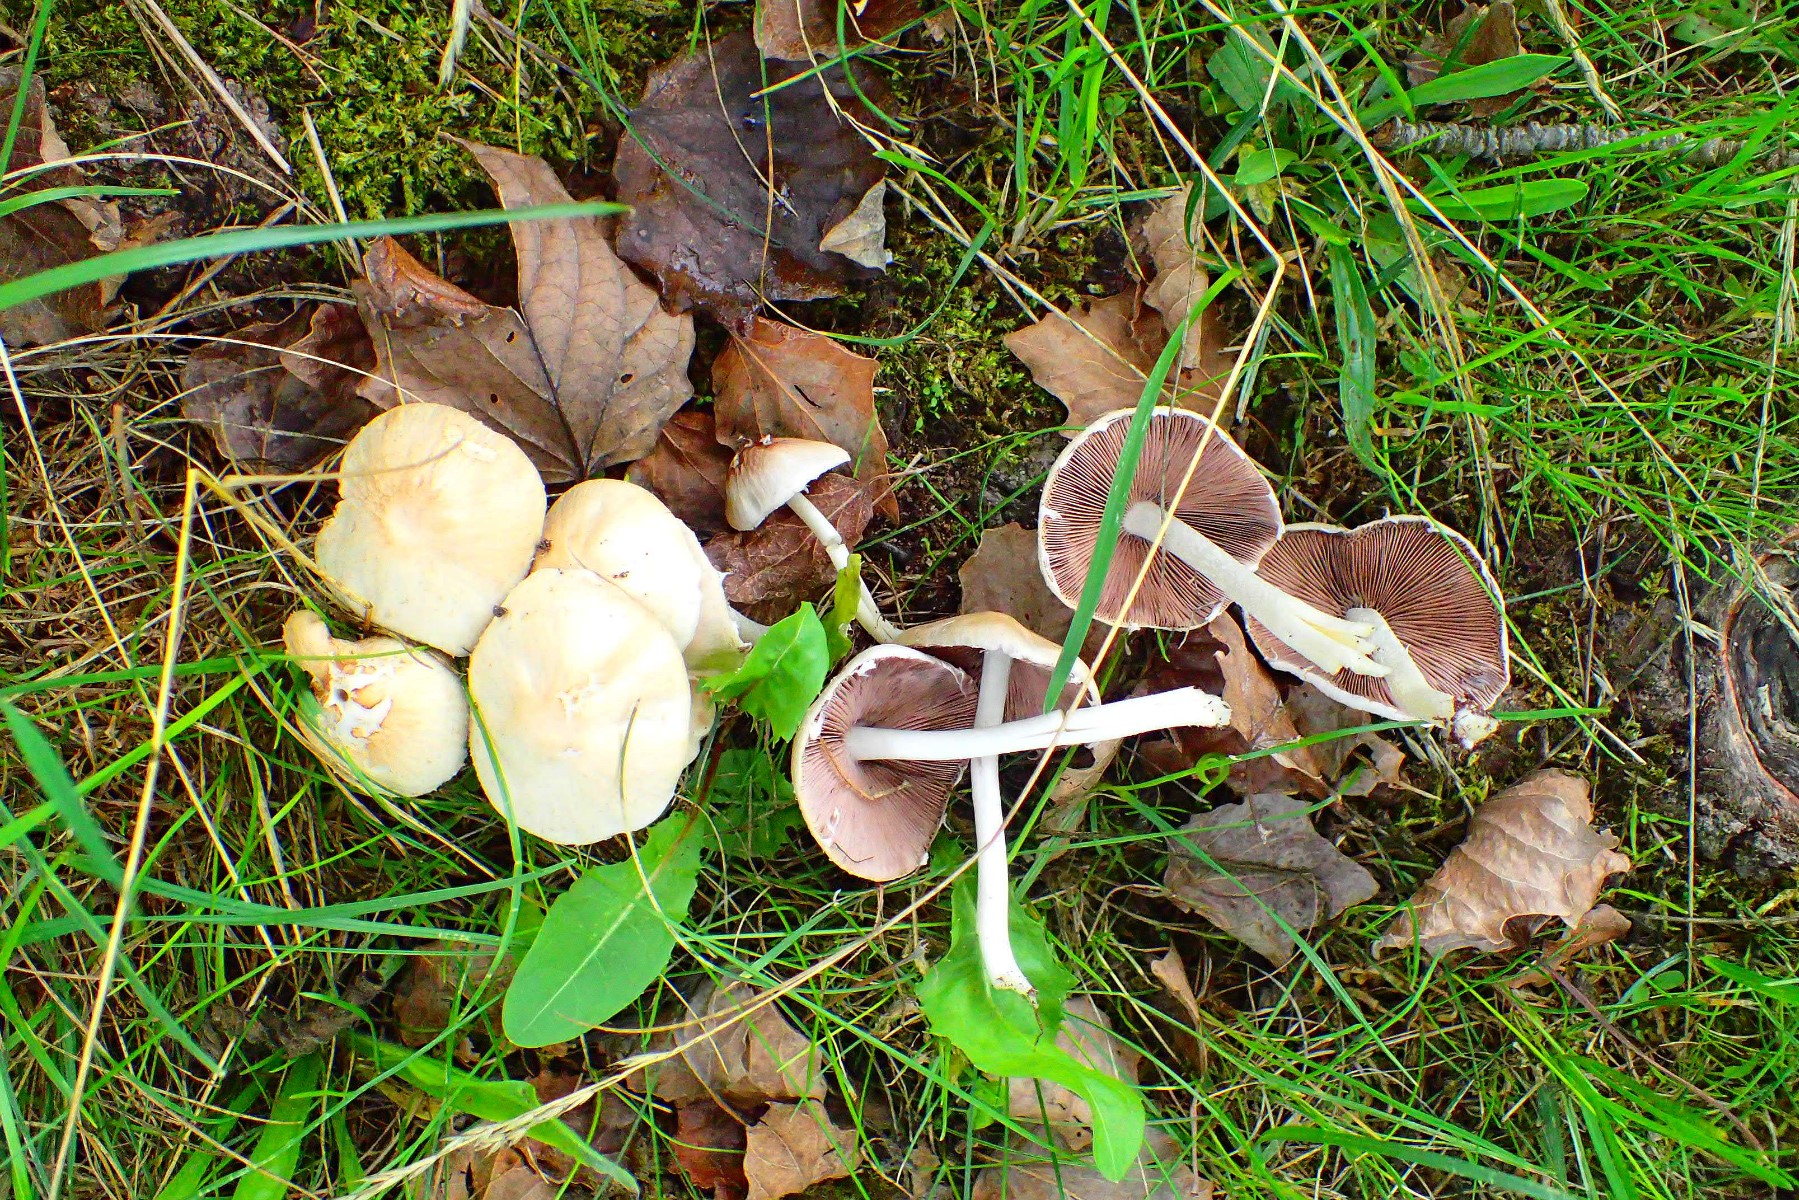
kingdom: Fungi
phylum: Basidiomycota
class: Agaricomycetes
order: Agaricales
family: Psathyrellaceae
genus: Candolleomyces
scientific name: Candolleomyces candolleanus
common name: Candolles mørkhat
